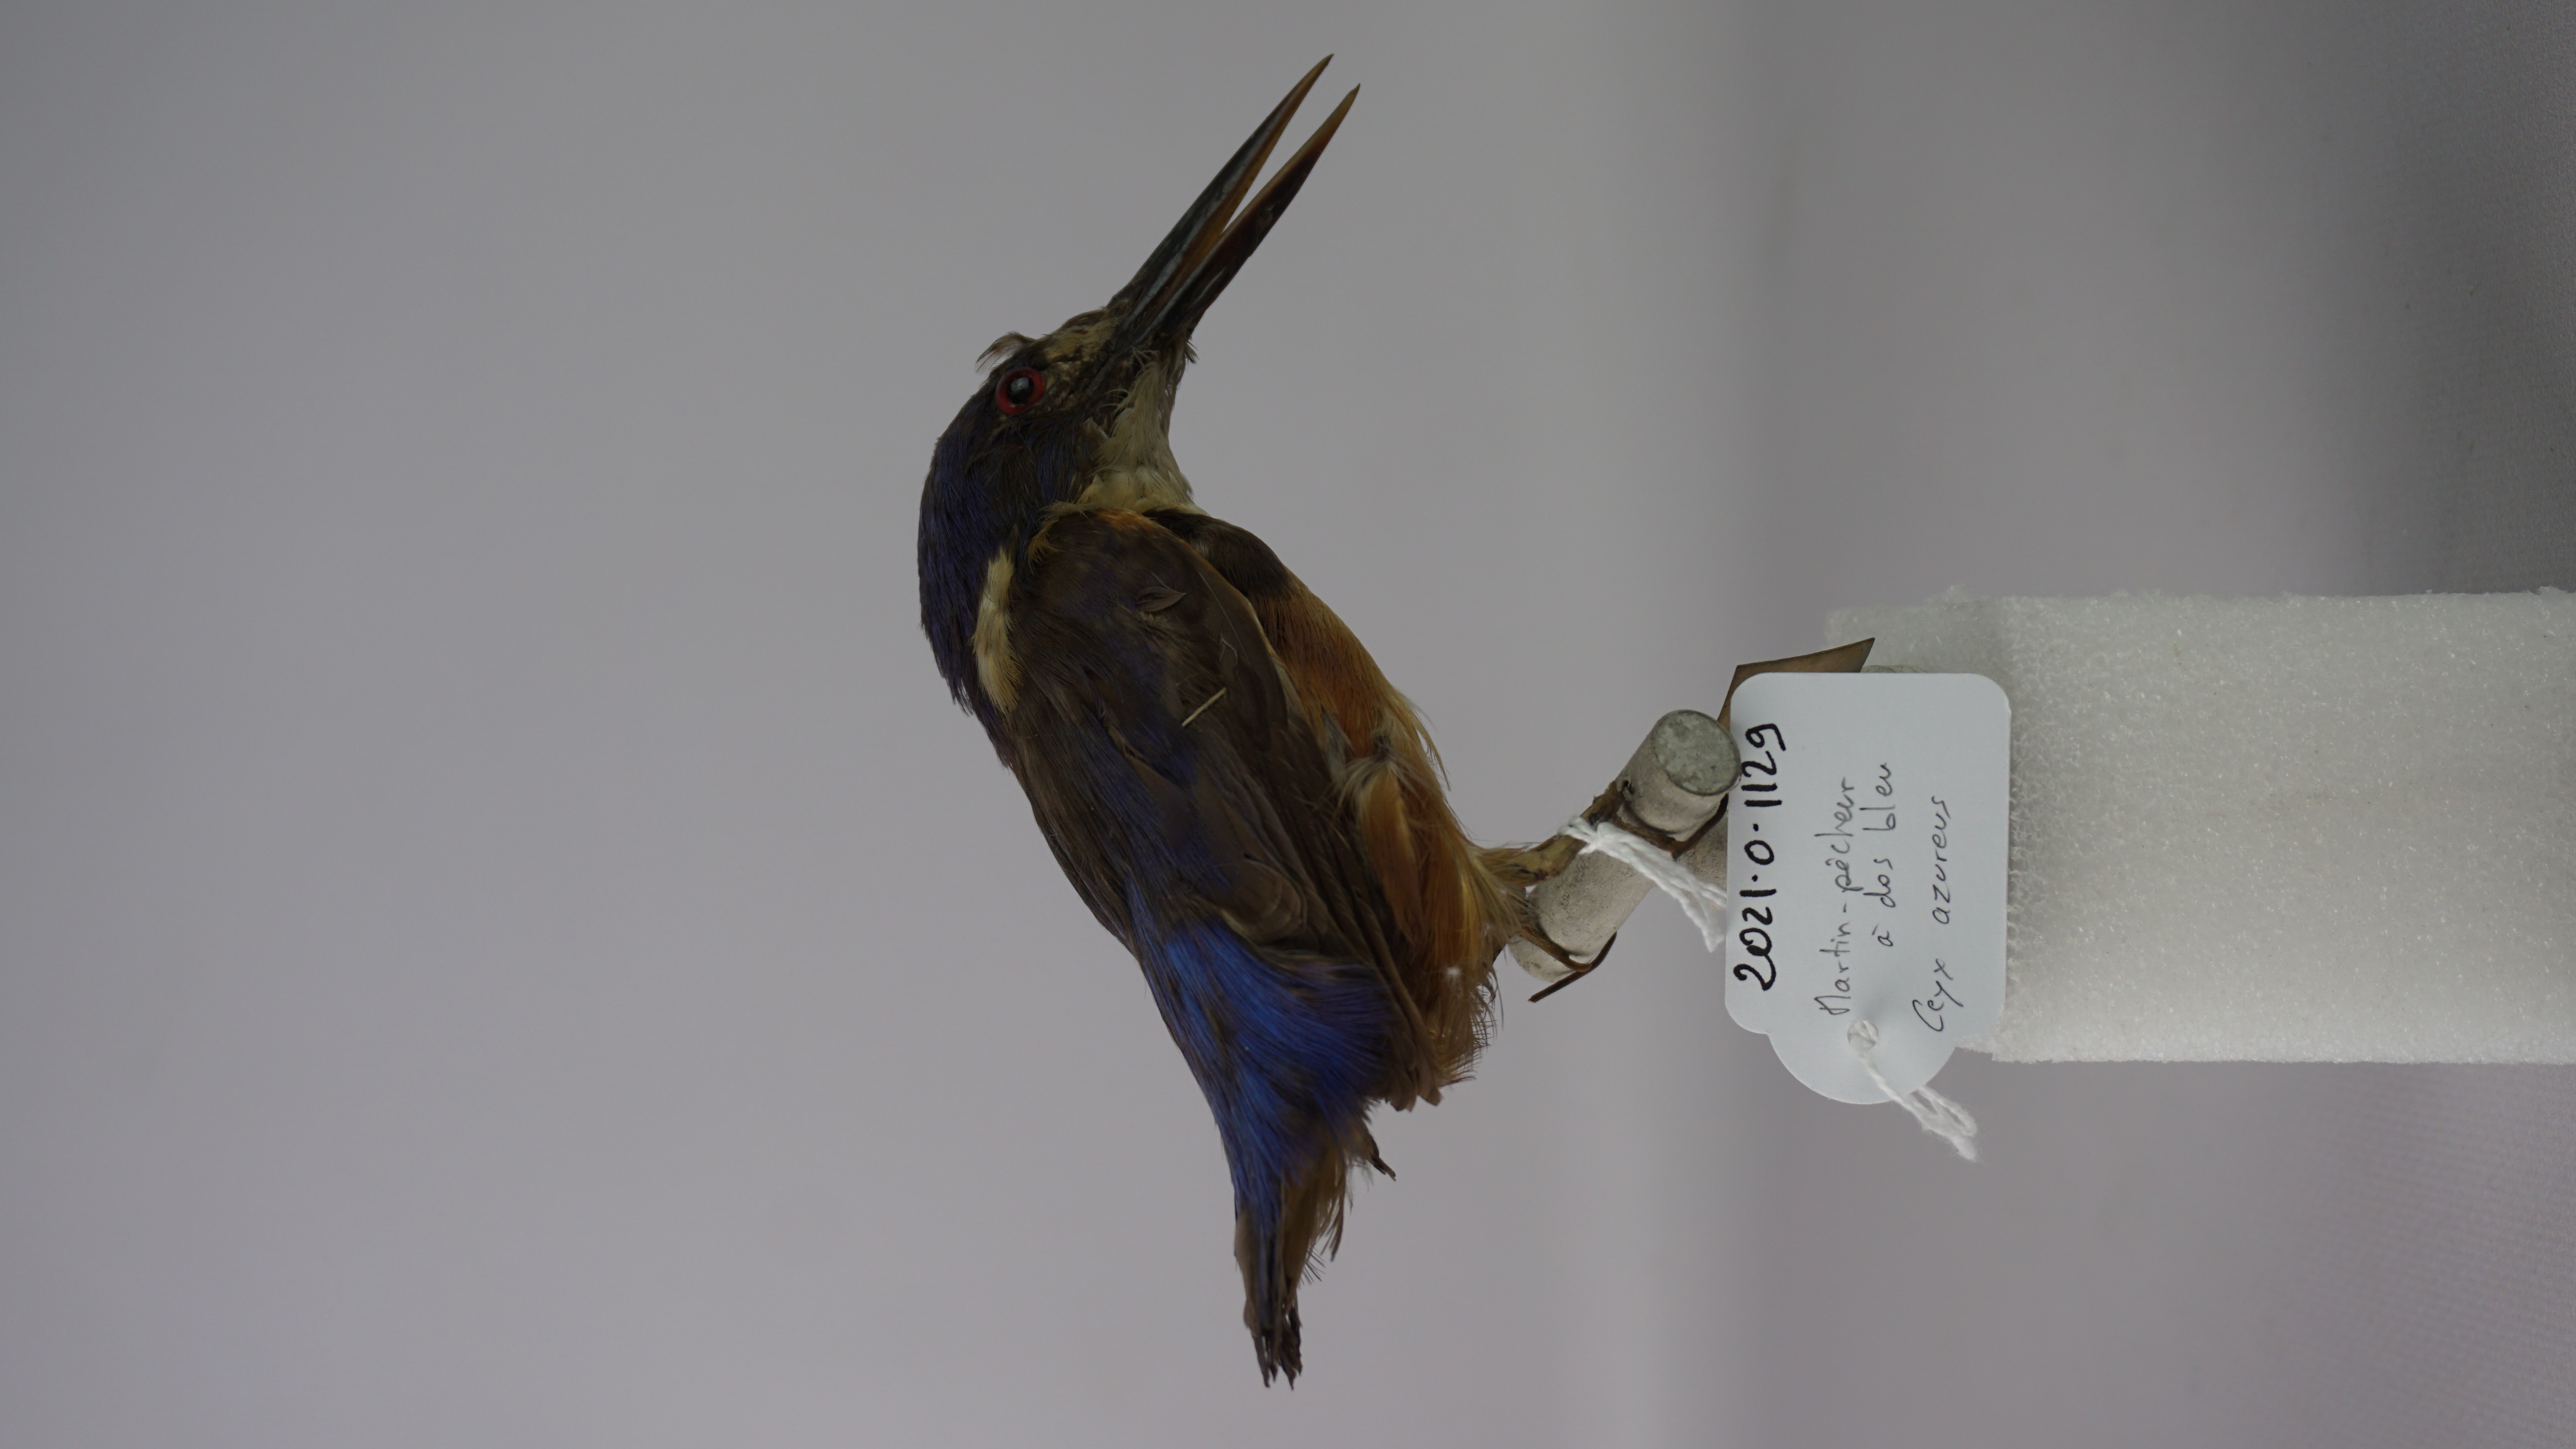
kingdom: Animalia
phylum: Chordata
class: Aves
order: Coraciiformes
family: Alcedinidae
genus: Ceyx
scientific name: Ceyx azureus
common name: Azure kingfisher
